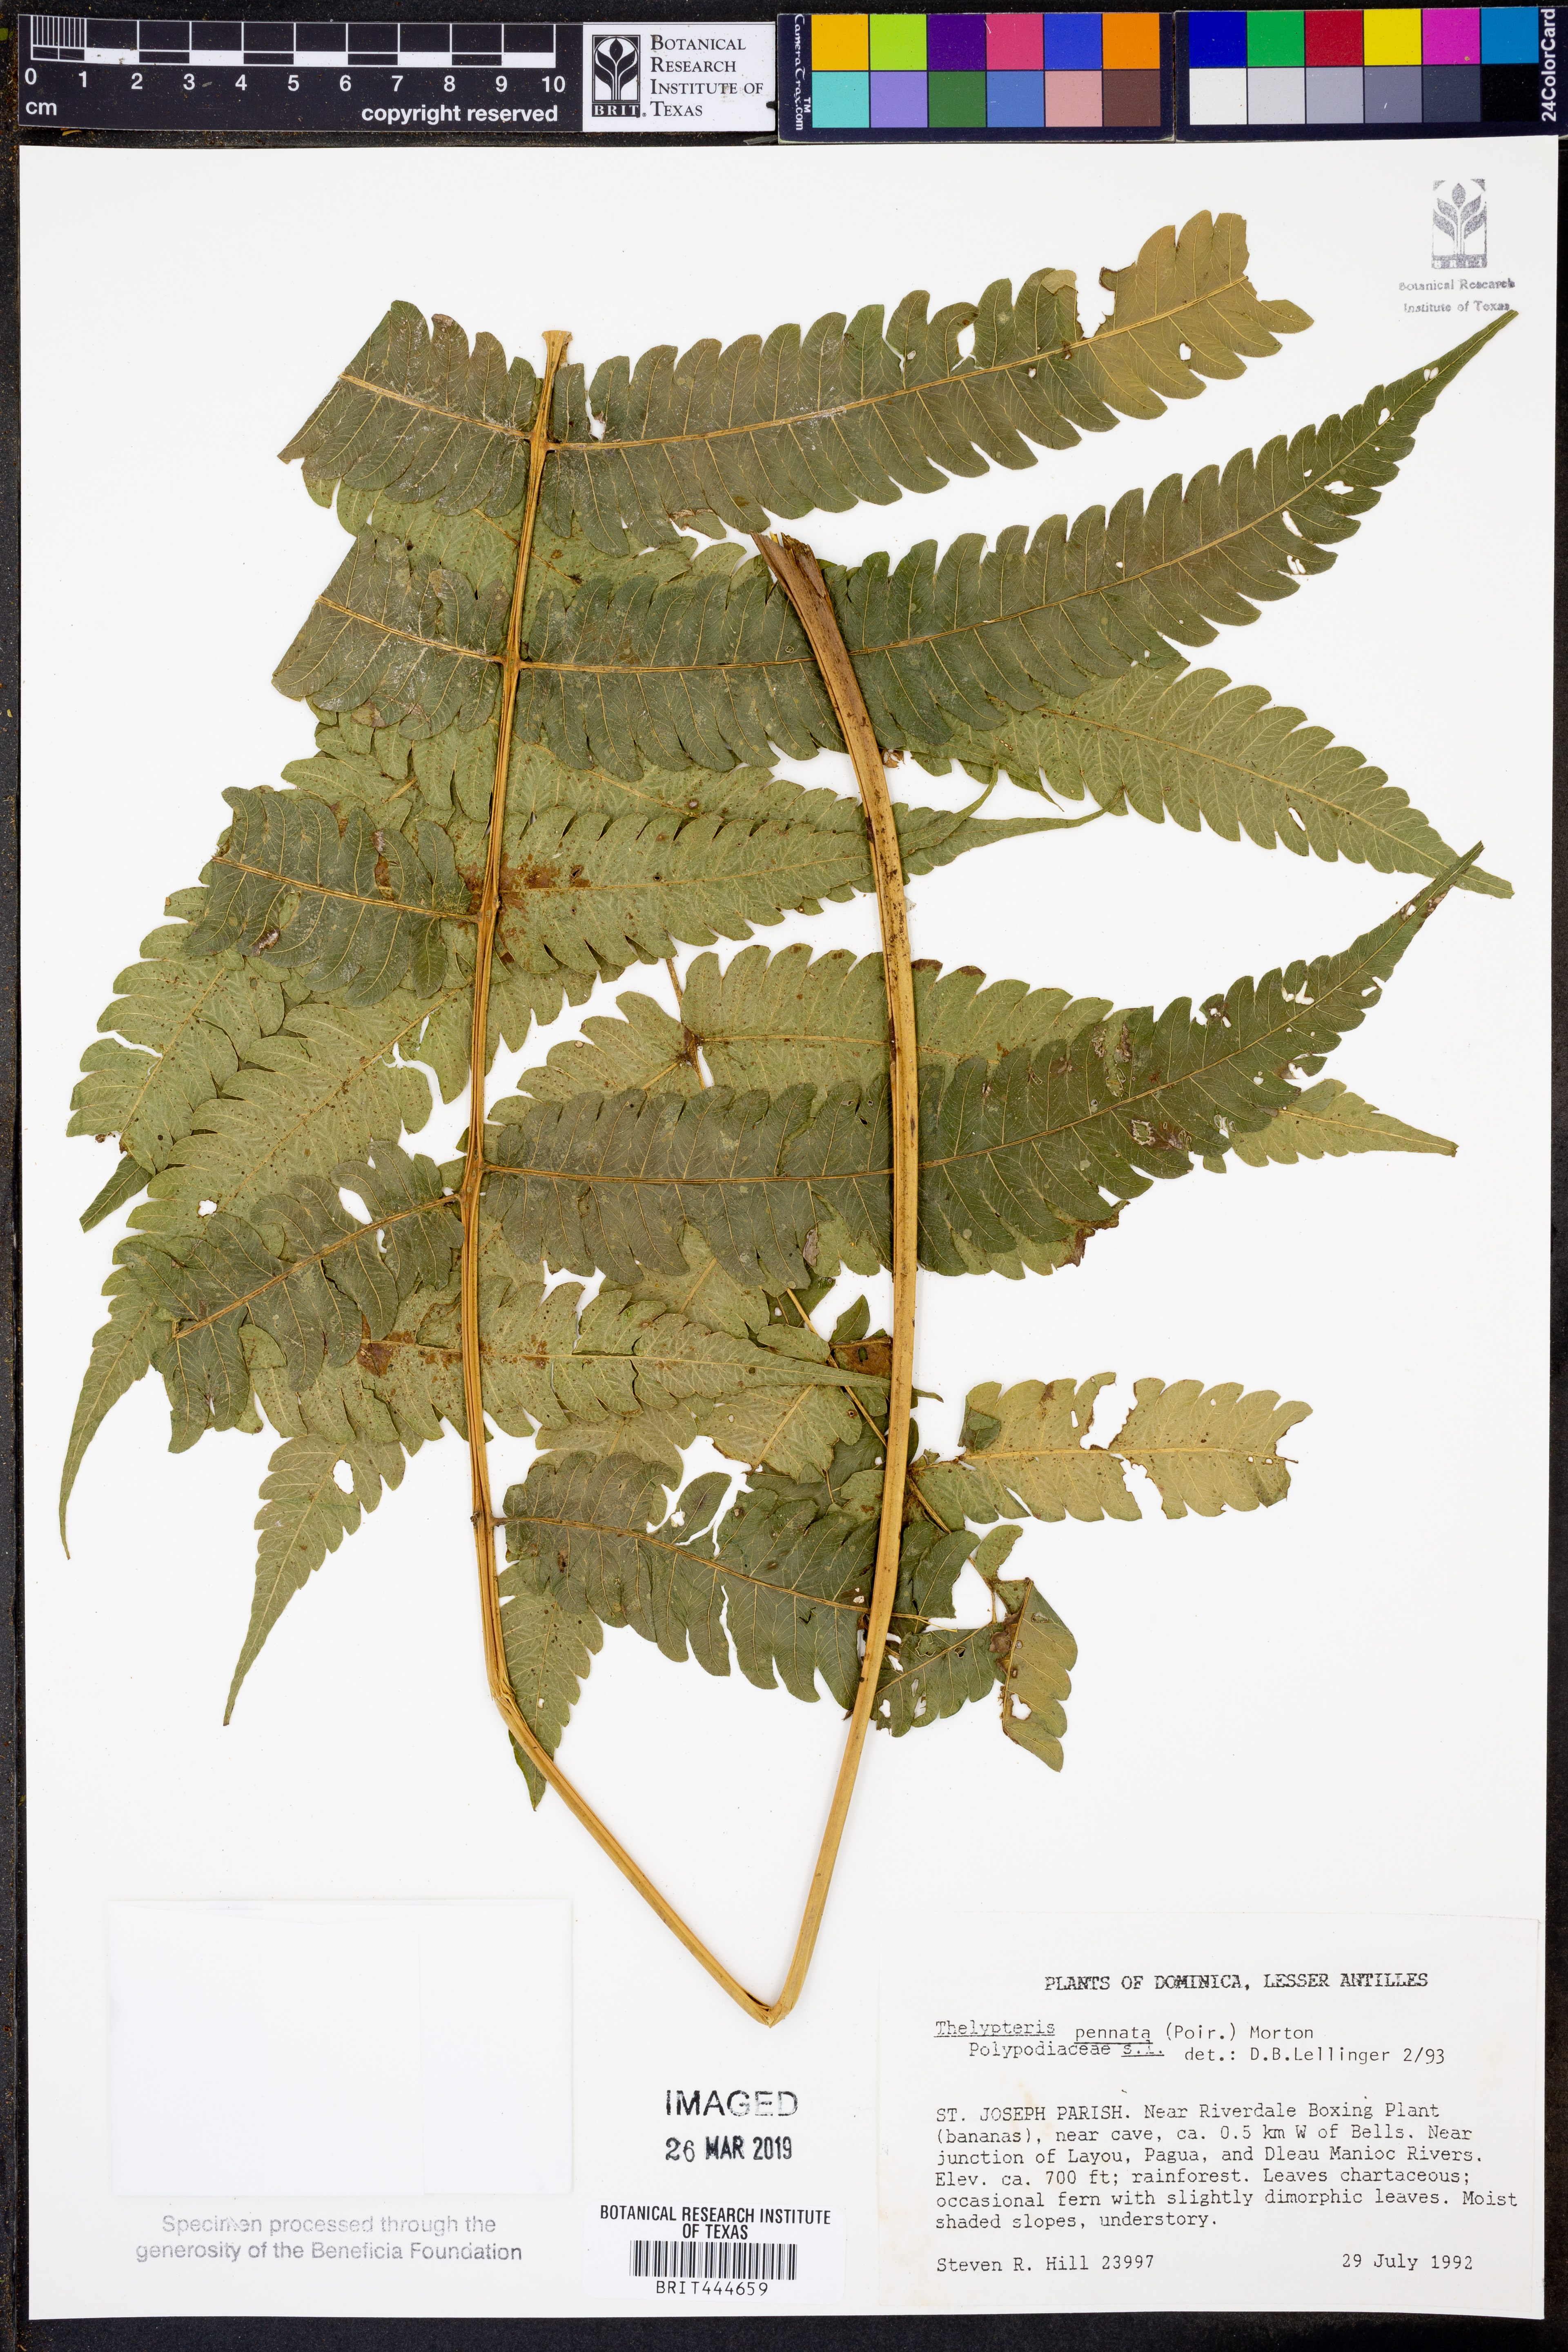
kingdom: Plantae
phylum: Tracheophyta
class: Polypodiopsida
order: Polypodiales
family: Thelypteridaceae
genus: Goniopteris
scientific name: Goniopteris pennata
